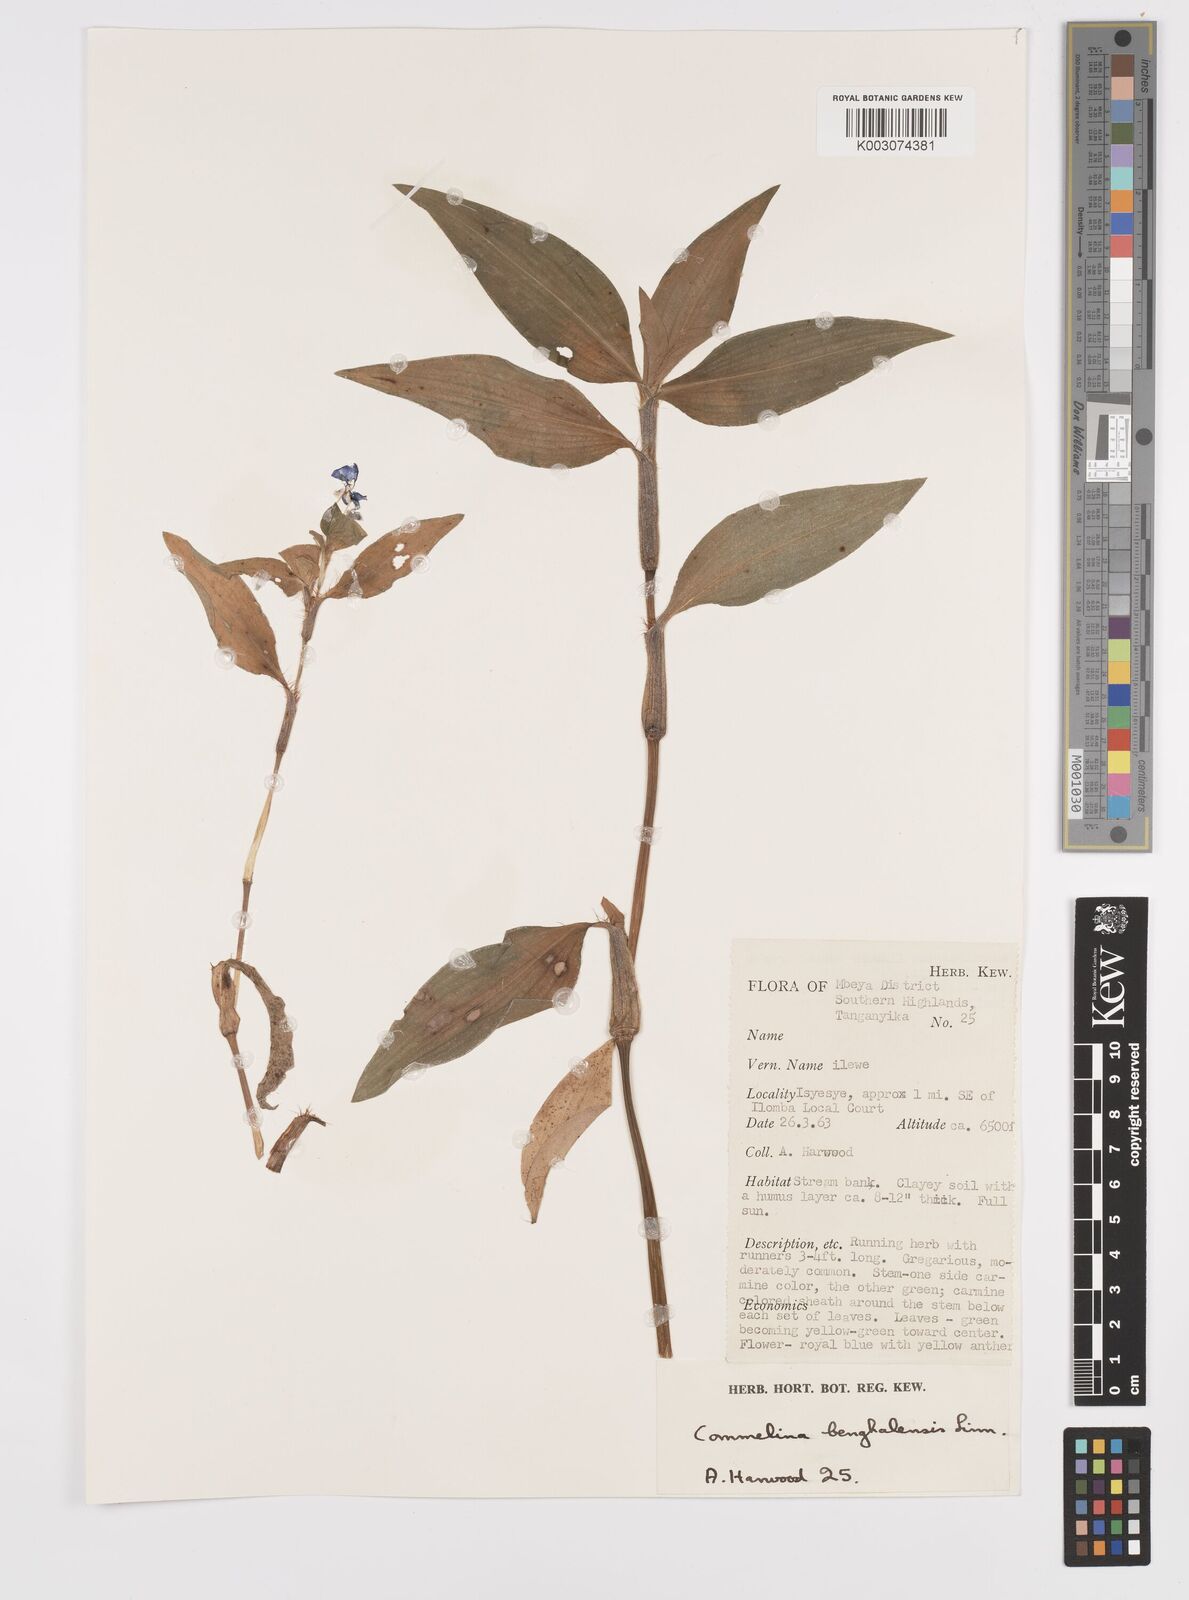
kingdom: Plantae
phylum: Tracheophyta
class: Liliopsida
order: Commelinales
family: Commelinaceae
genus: Commelina
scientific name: Commelina benghalensis
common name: Jio
